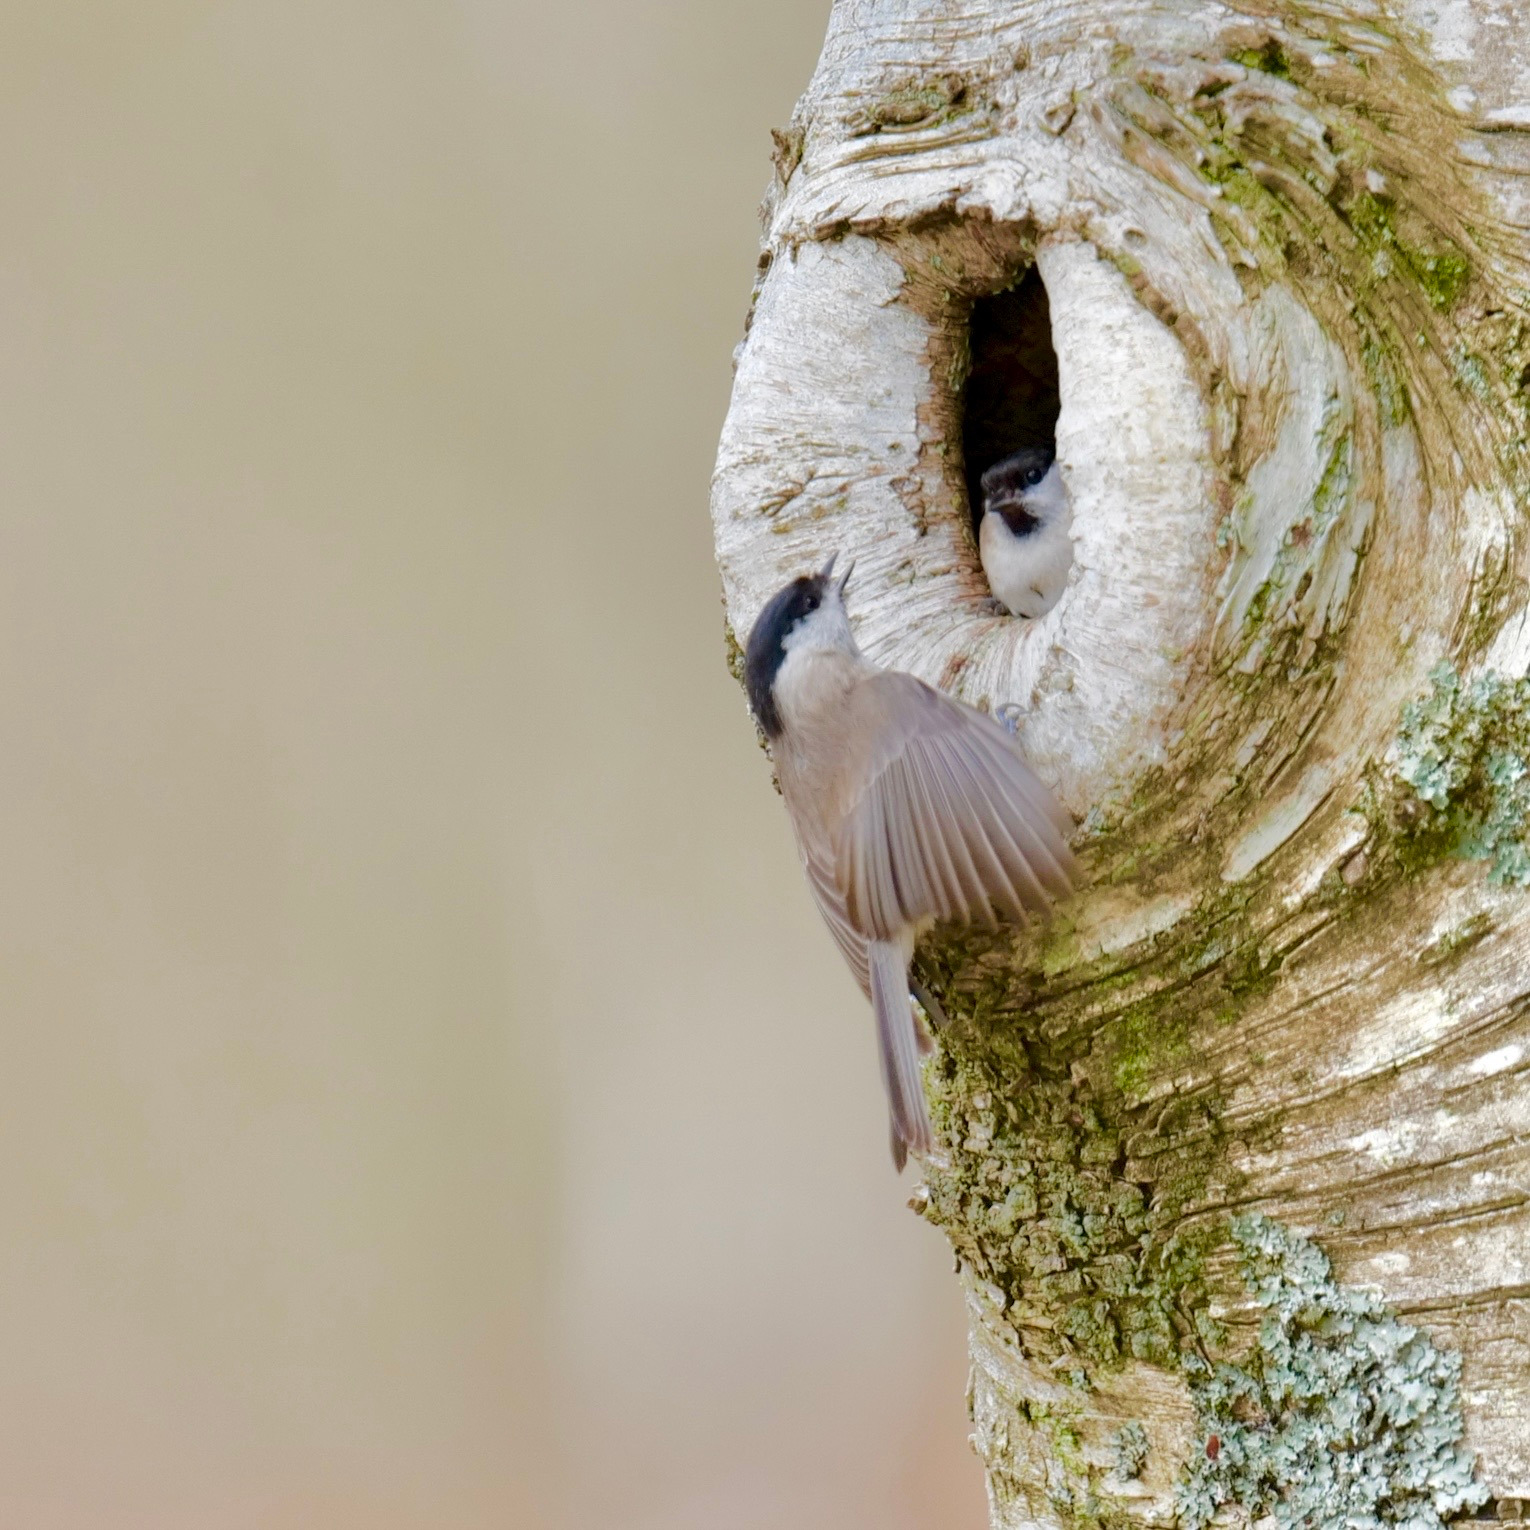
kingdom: Animalia
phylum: Chordata
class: Aves
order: Passeriformes
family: Paridae
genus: Poecile
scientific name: Poecile palustris
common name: Sumpmejse
